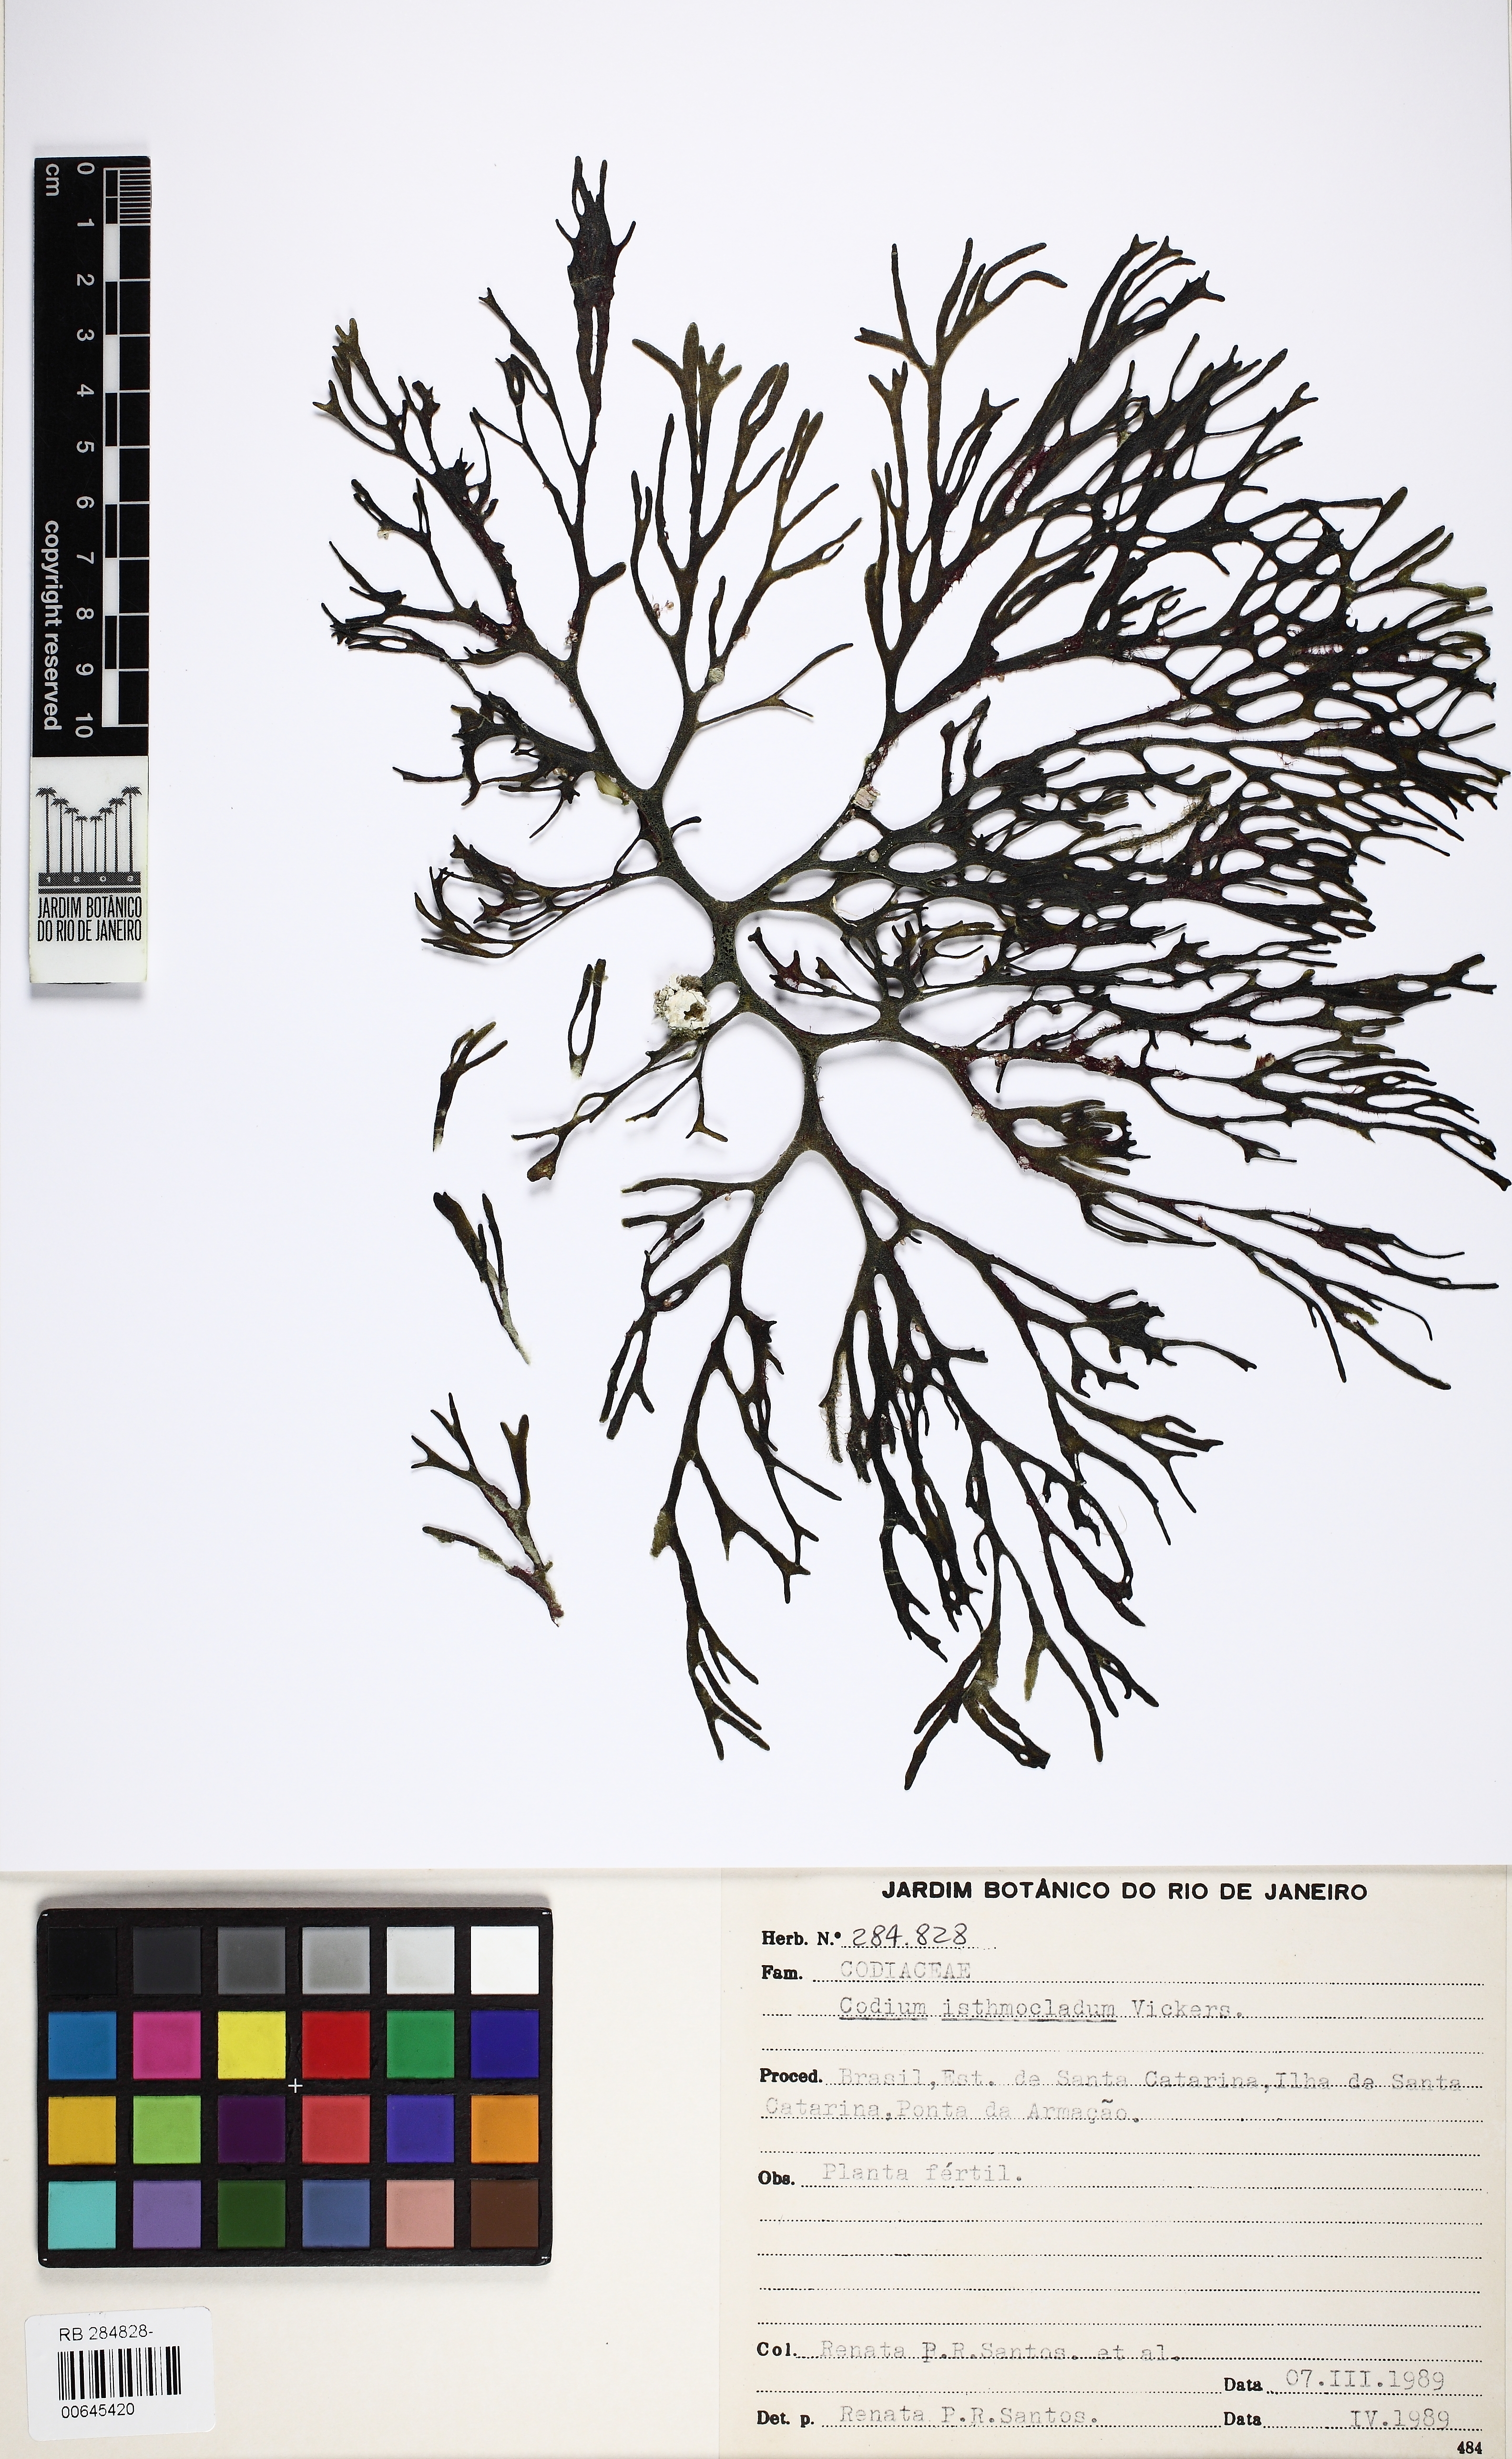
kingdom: Plantae
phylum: Chlorophyta
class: Ulvophyceae
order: Bryopsidales
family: Codiaceae
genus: Codium
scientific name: Codium isthmocladum
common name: Dead man's fingers
